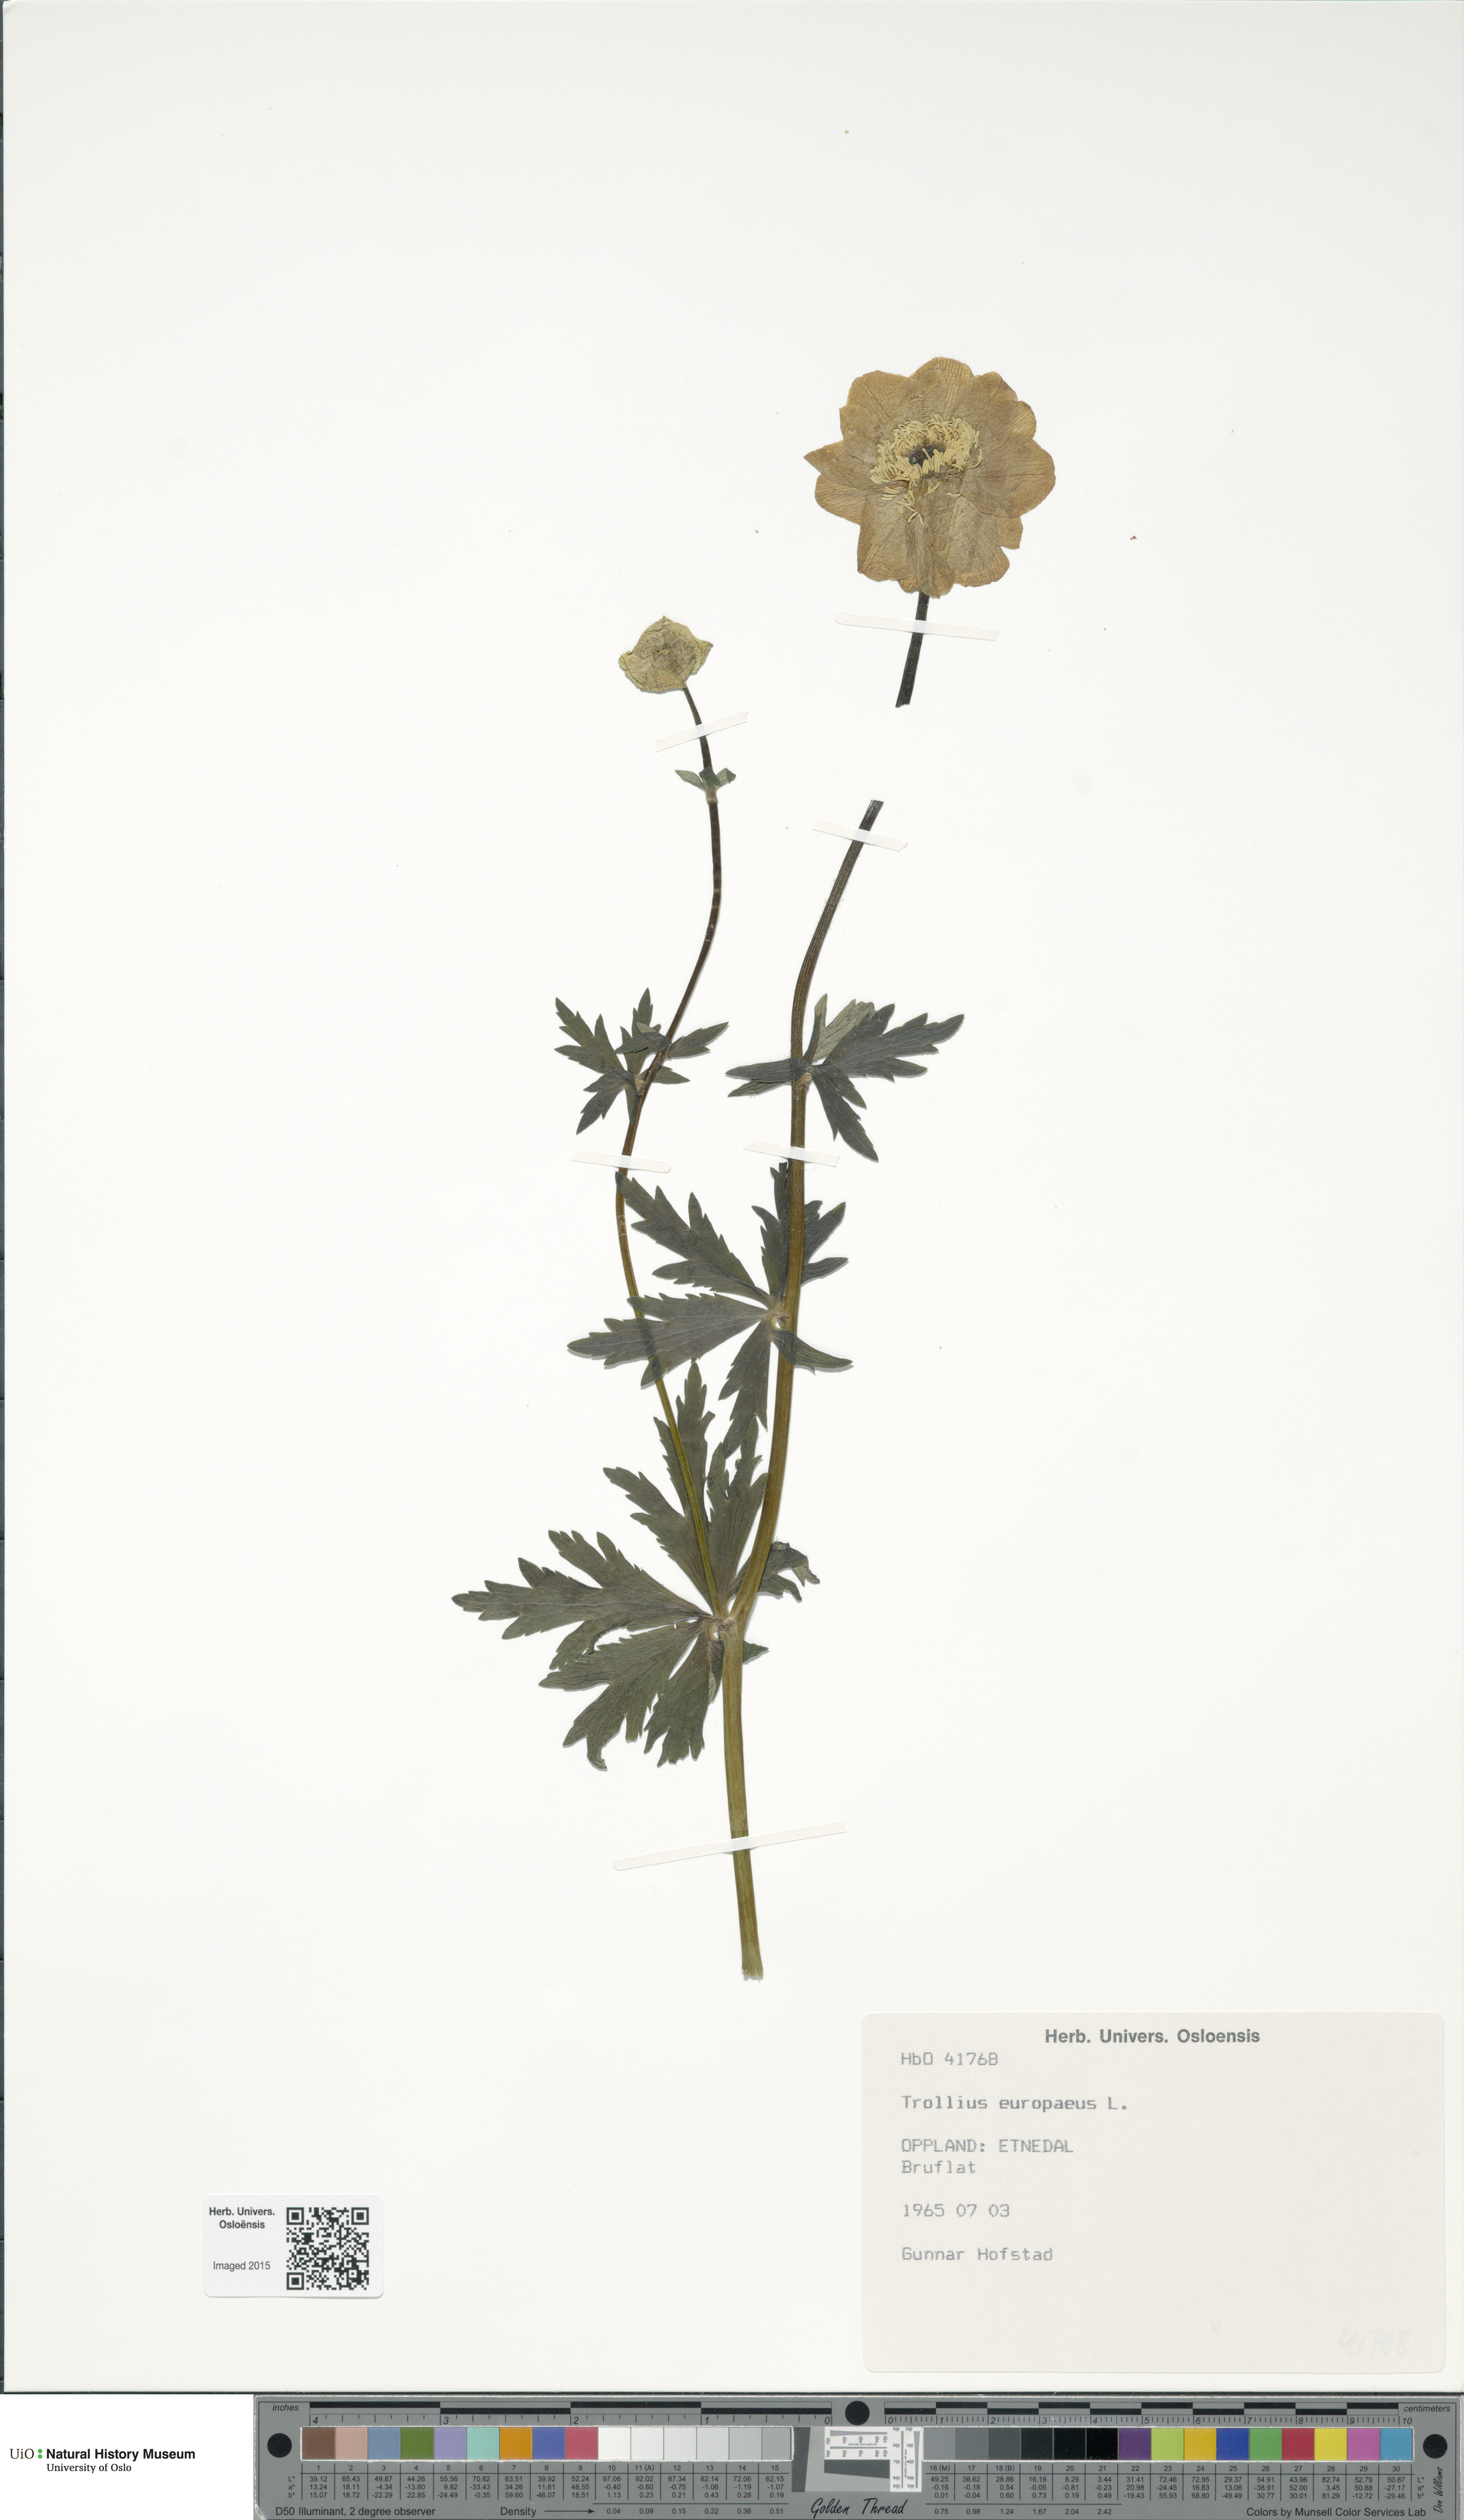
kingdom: Plantae
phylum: Tracheophyta
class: Magnoliopsida
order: Ranunculales
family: Ranunculaceae
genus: Trollius
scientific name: Trollius europaeus
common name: European globeflower
